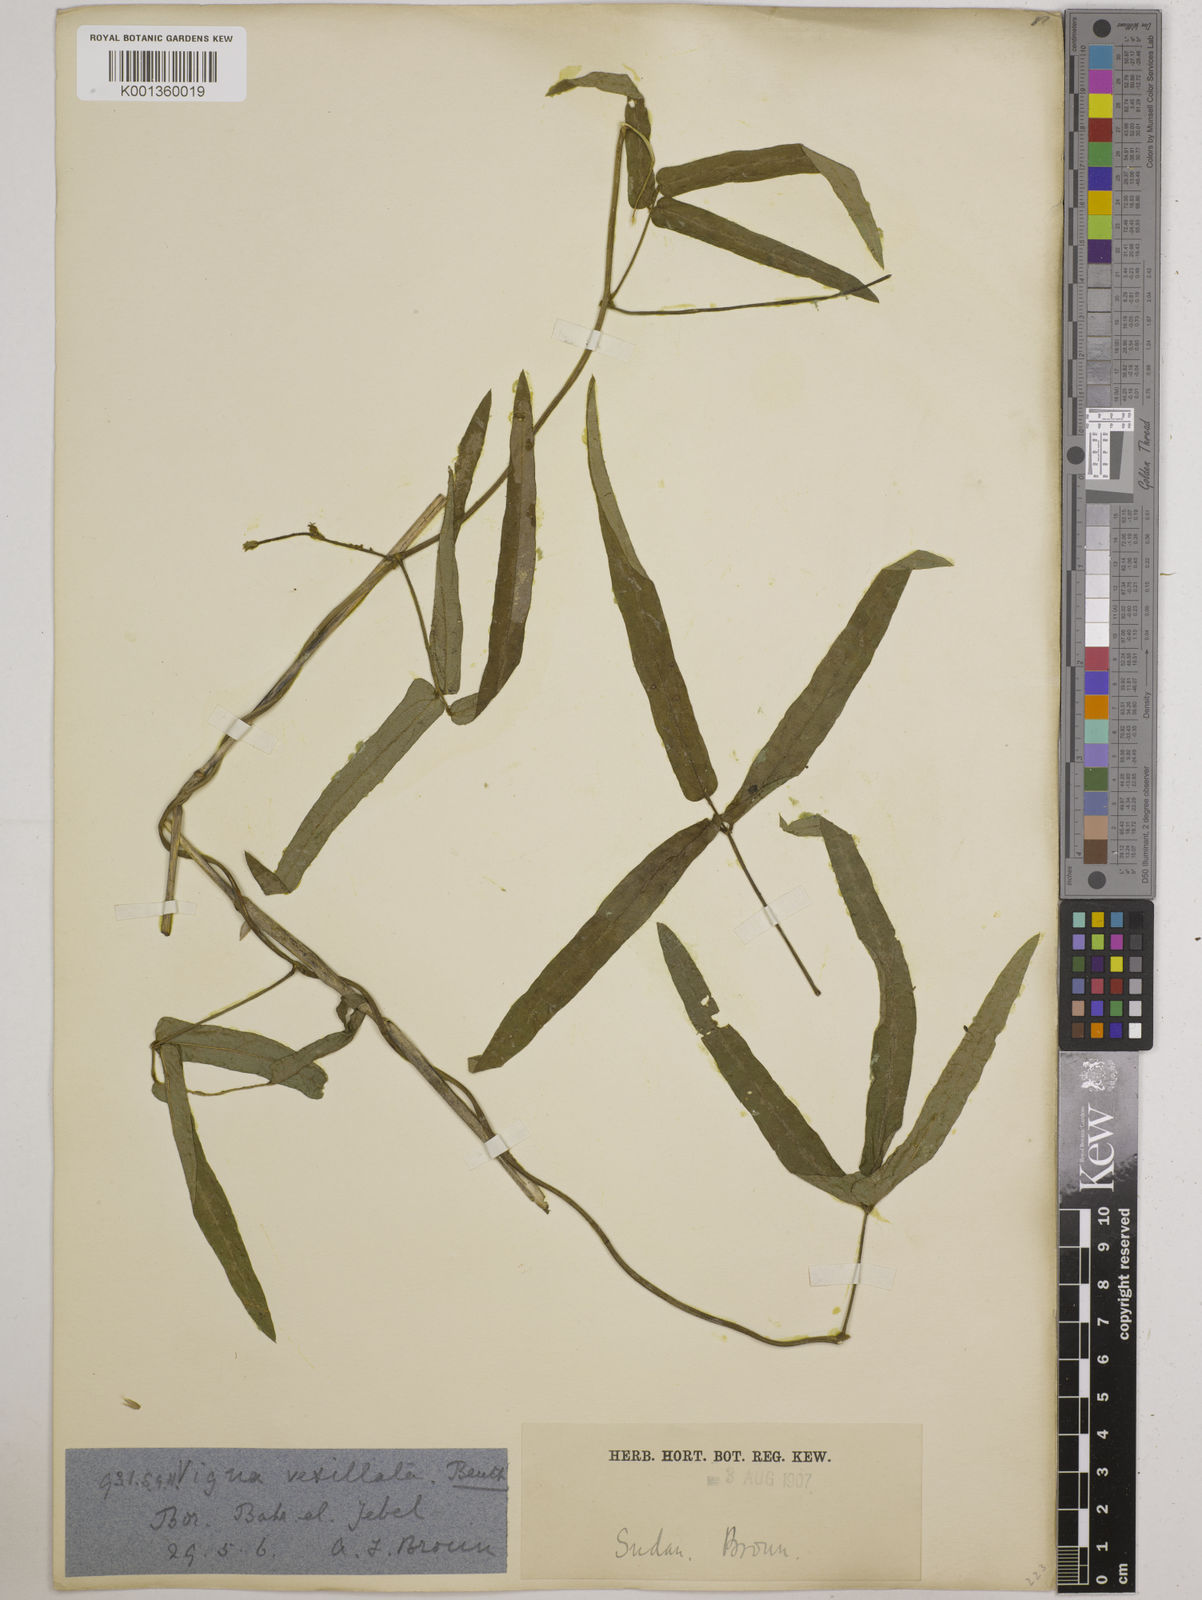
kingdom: Plantae
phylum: Tracheophyta
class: Magnoliopsida
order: Fabales
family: Fabaceae
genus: Vigna
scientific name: Vigna reticulata
